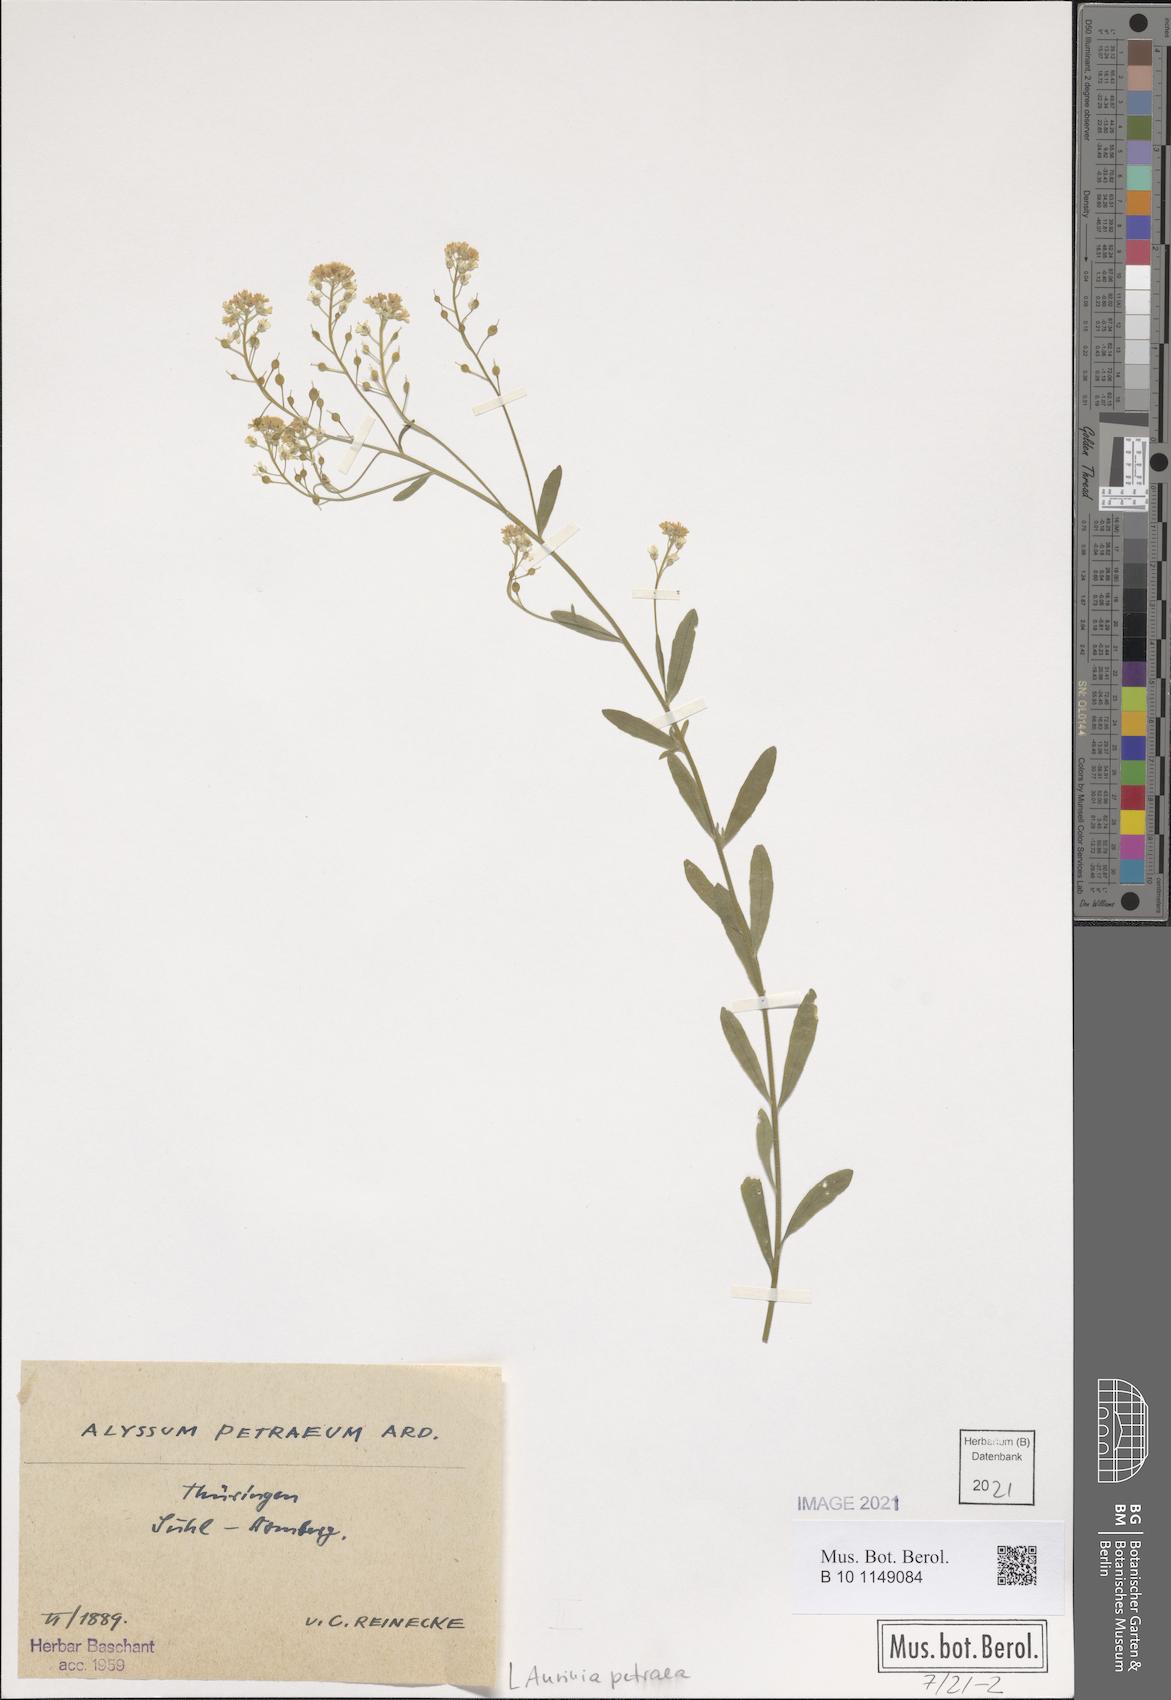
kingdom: Plantae
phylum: Tracheophyta
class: Magnoliopsida
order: Brassicales
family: Brassicaceae
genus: Aurinia
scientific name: Aurinia petraea
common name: Goldentuft
